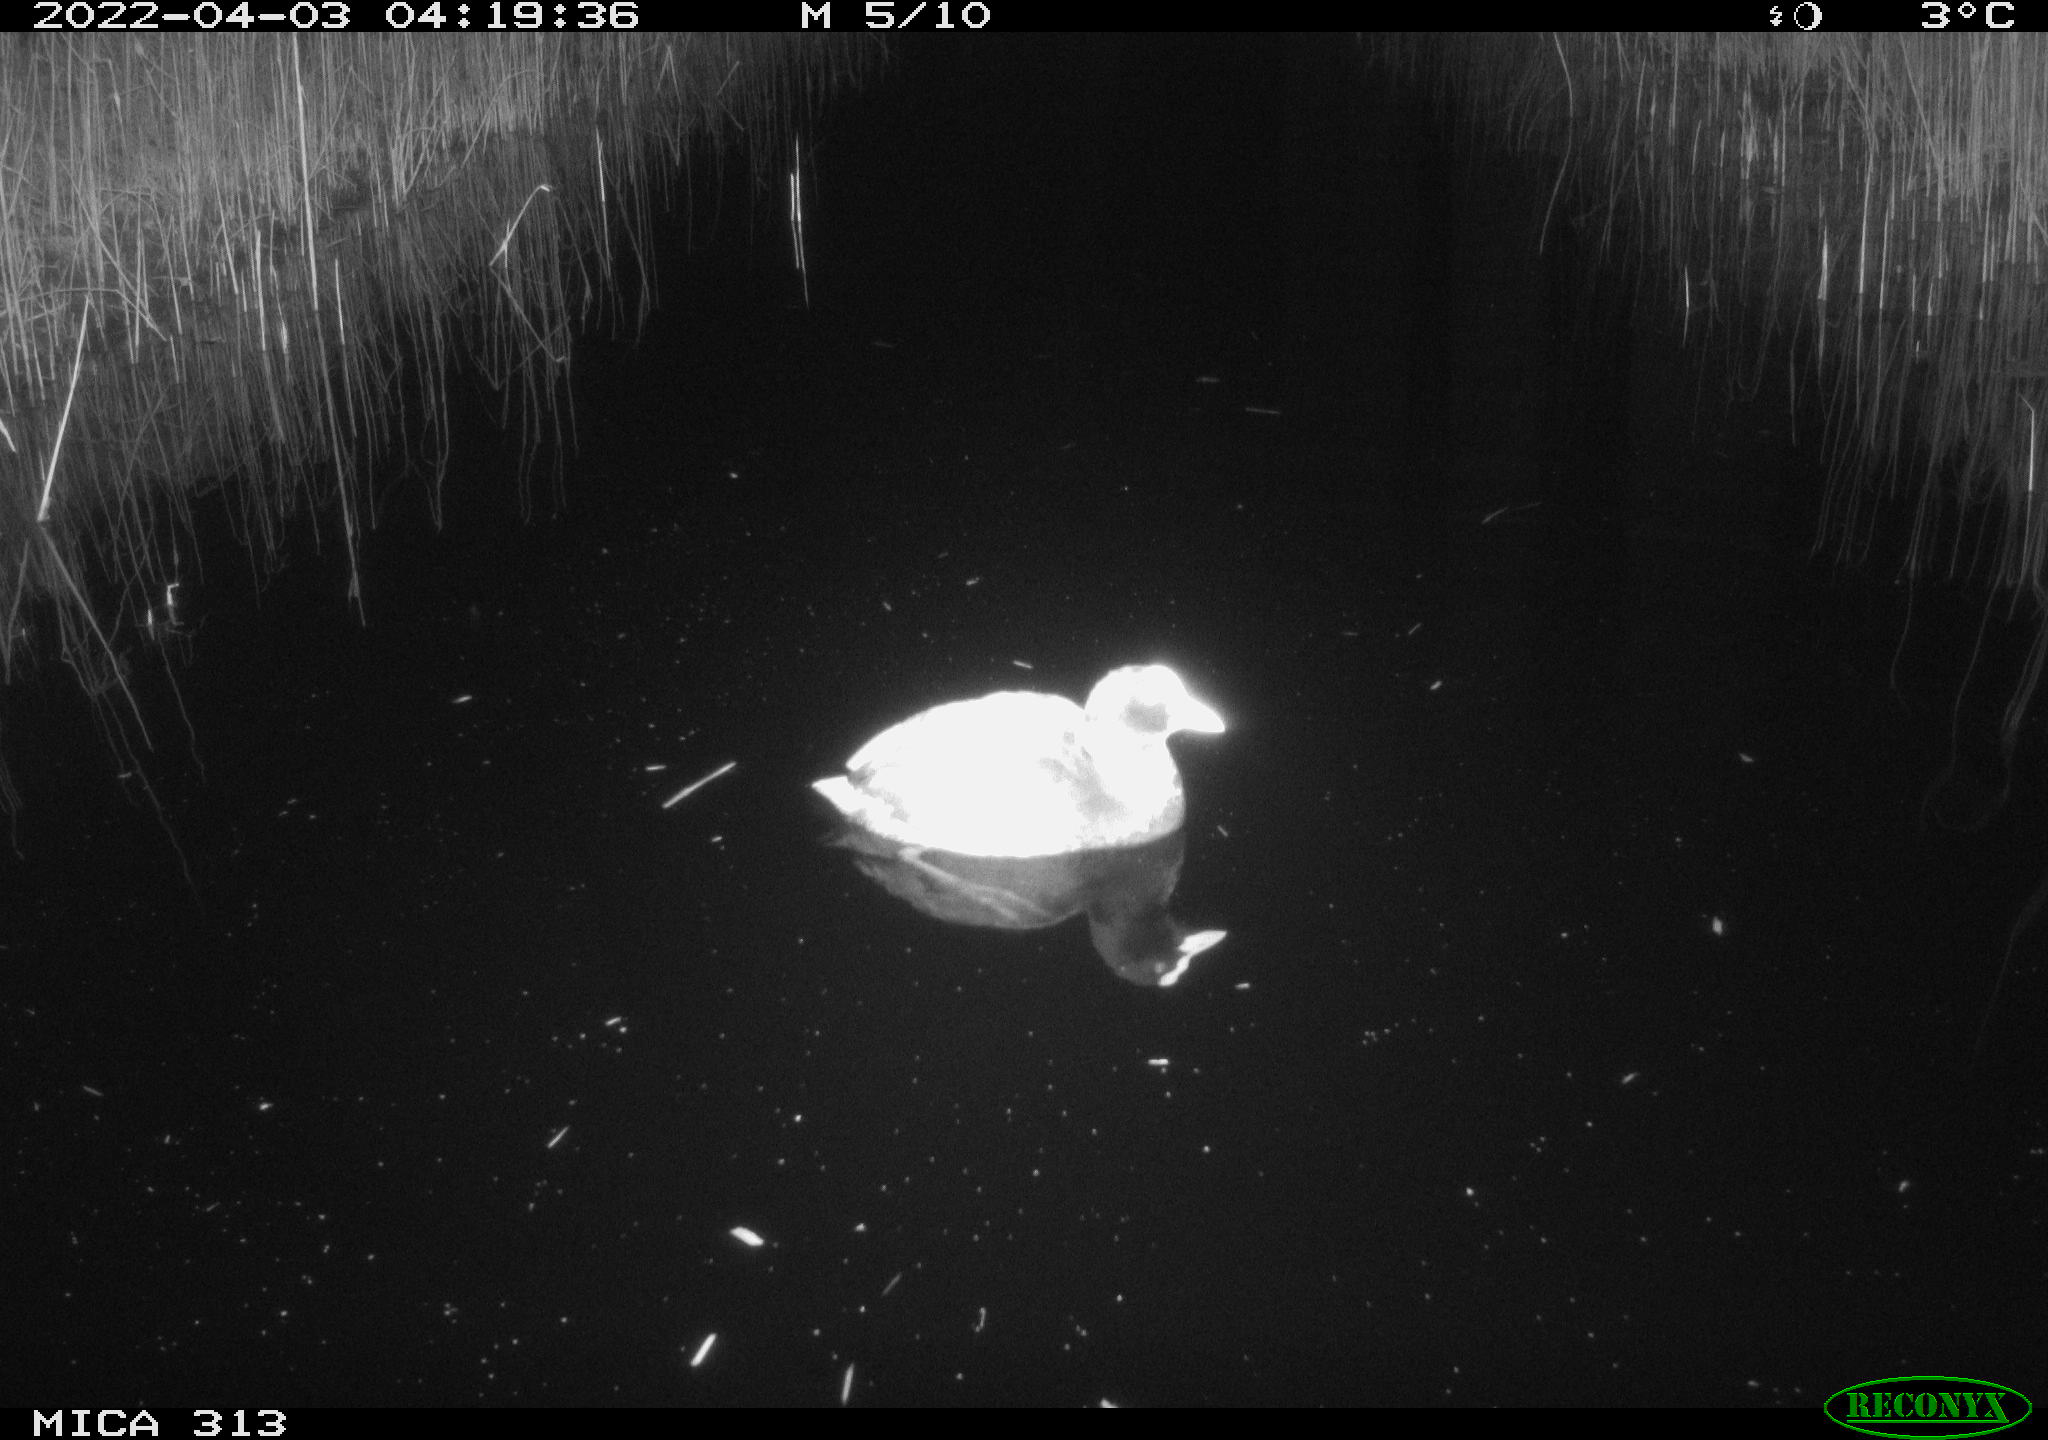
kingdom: Animalia
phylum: Chordata
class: Aves
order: Gruiformes
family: Rallidae
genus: Fulica
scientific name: Fulica atra
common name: Eurasian coot
